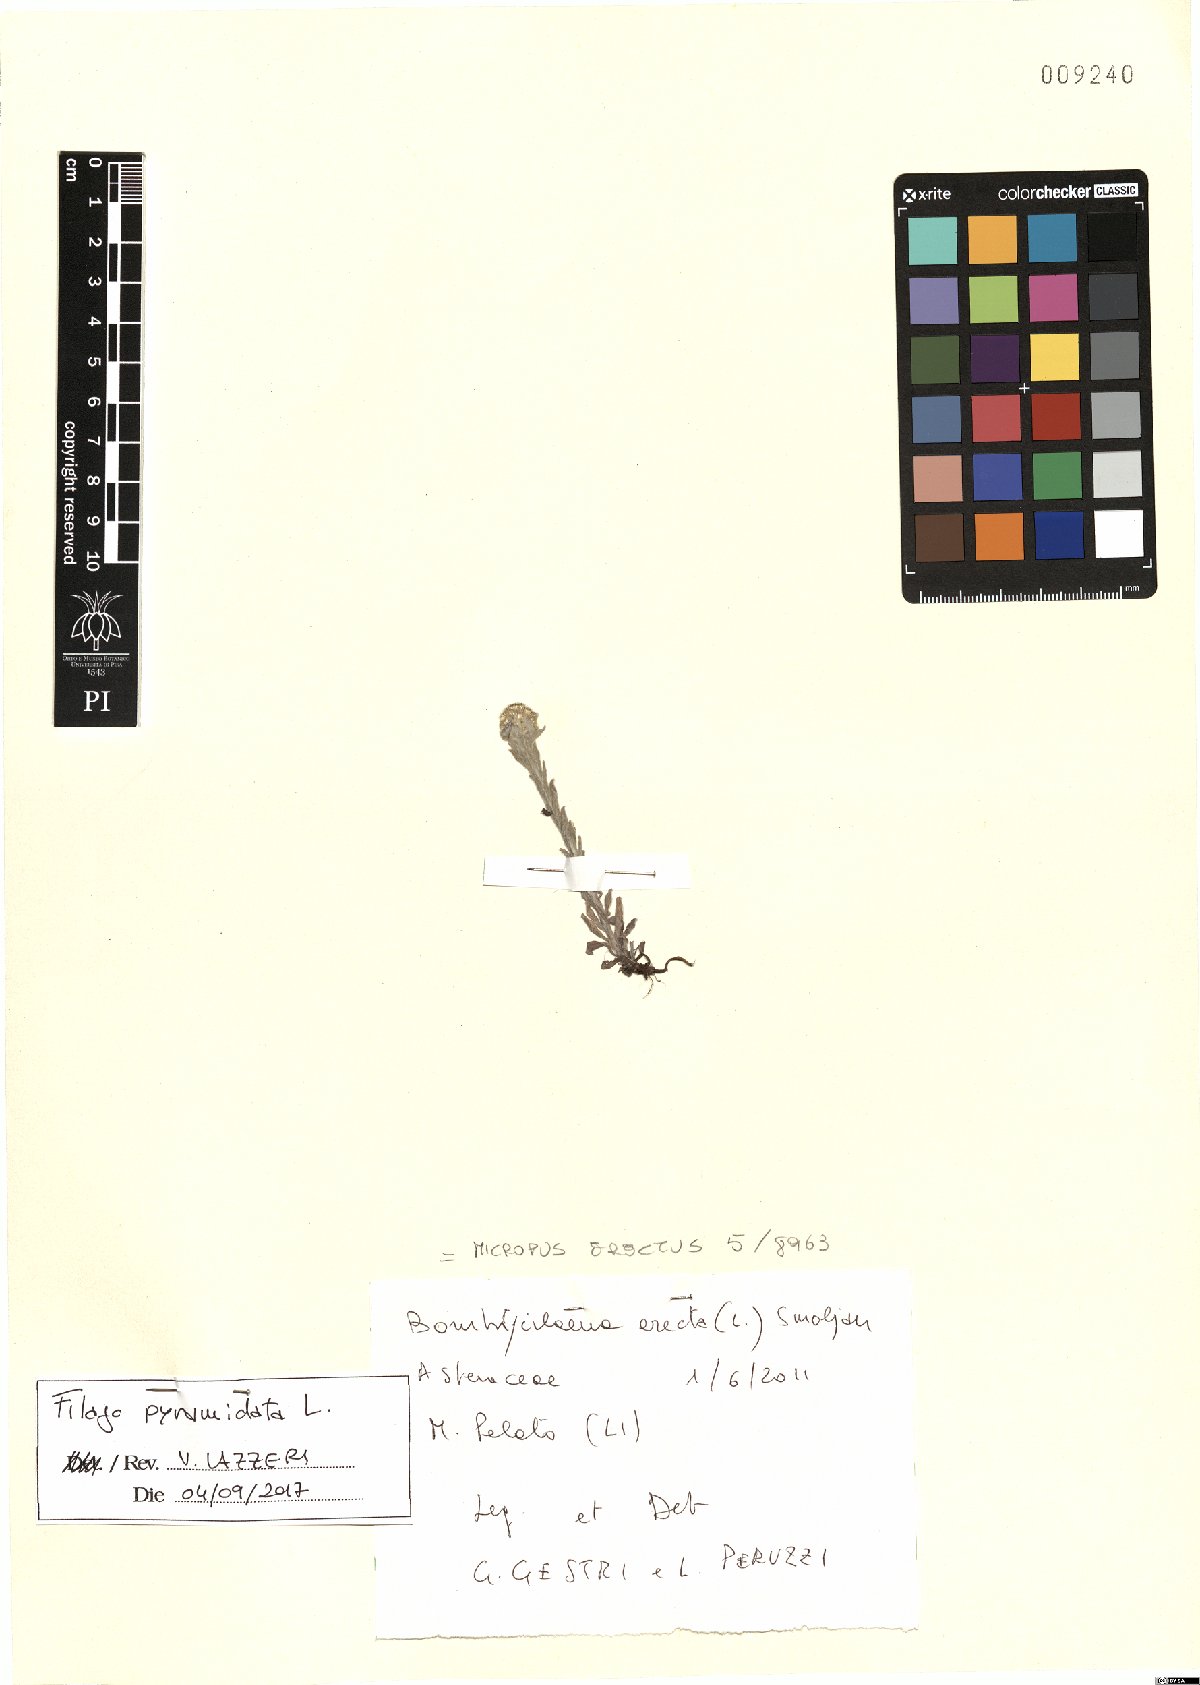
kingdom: Plantae
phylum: Tracheophyta
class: Magnoliopsida
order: Asterales
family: Asteraceae
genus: Filago
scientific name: Filago pyramidata
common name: Broad-leaved cudweed
